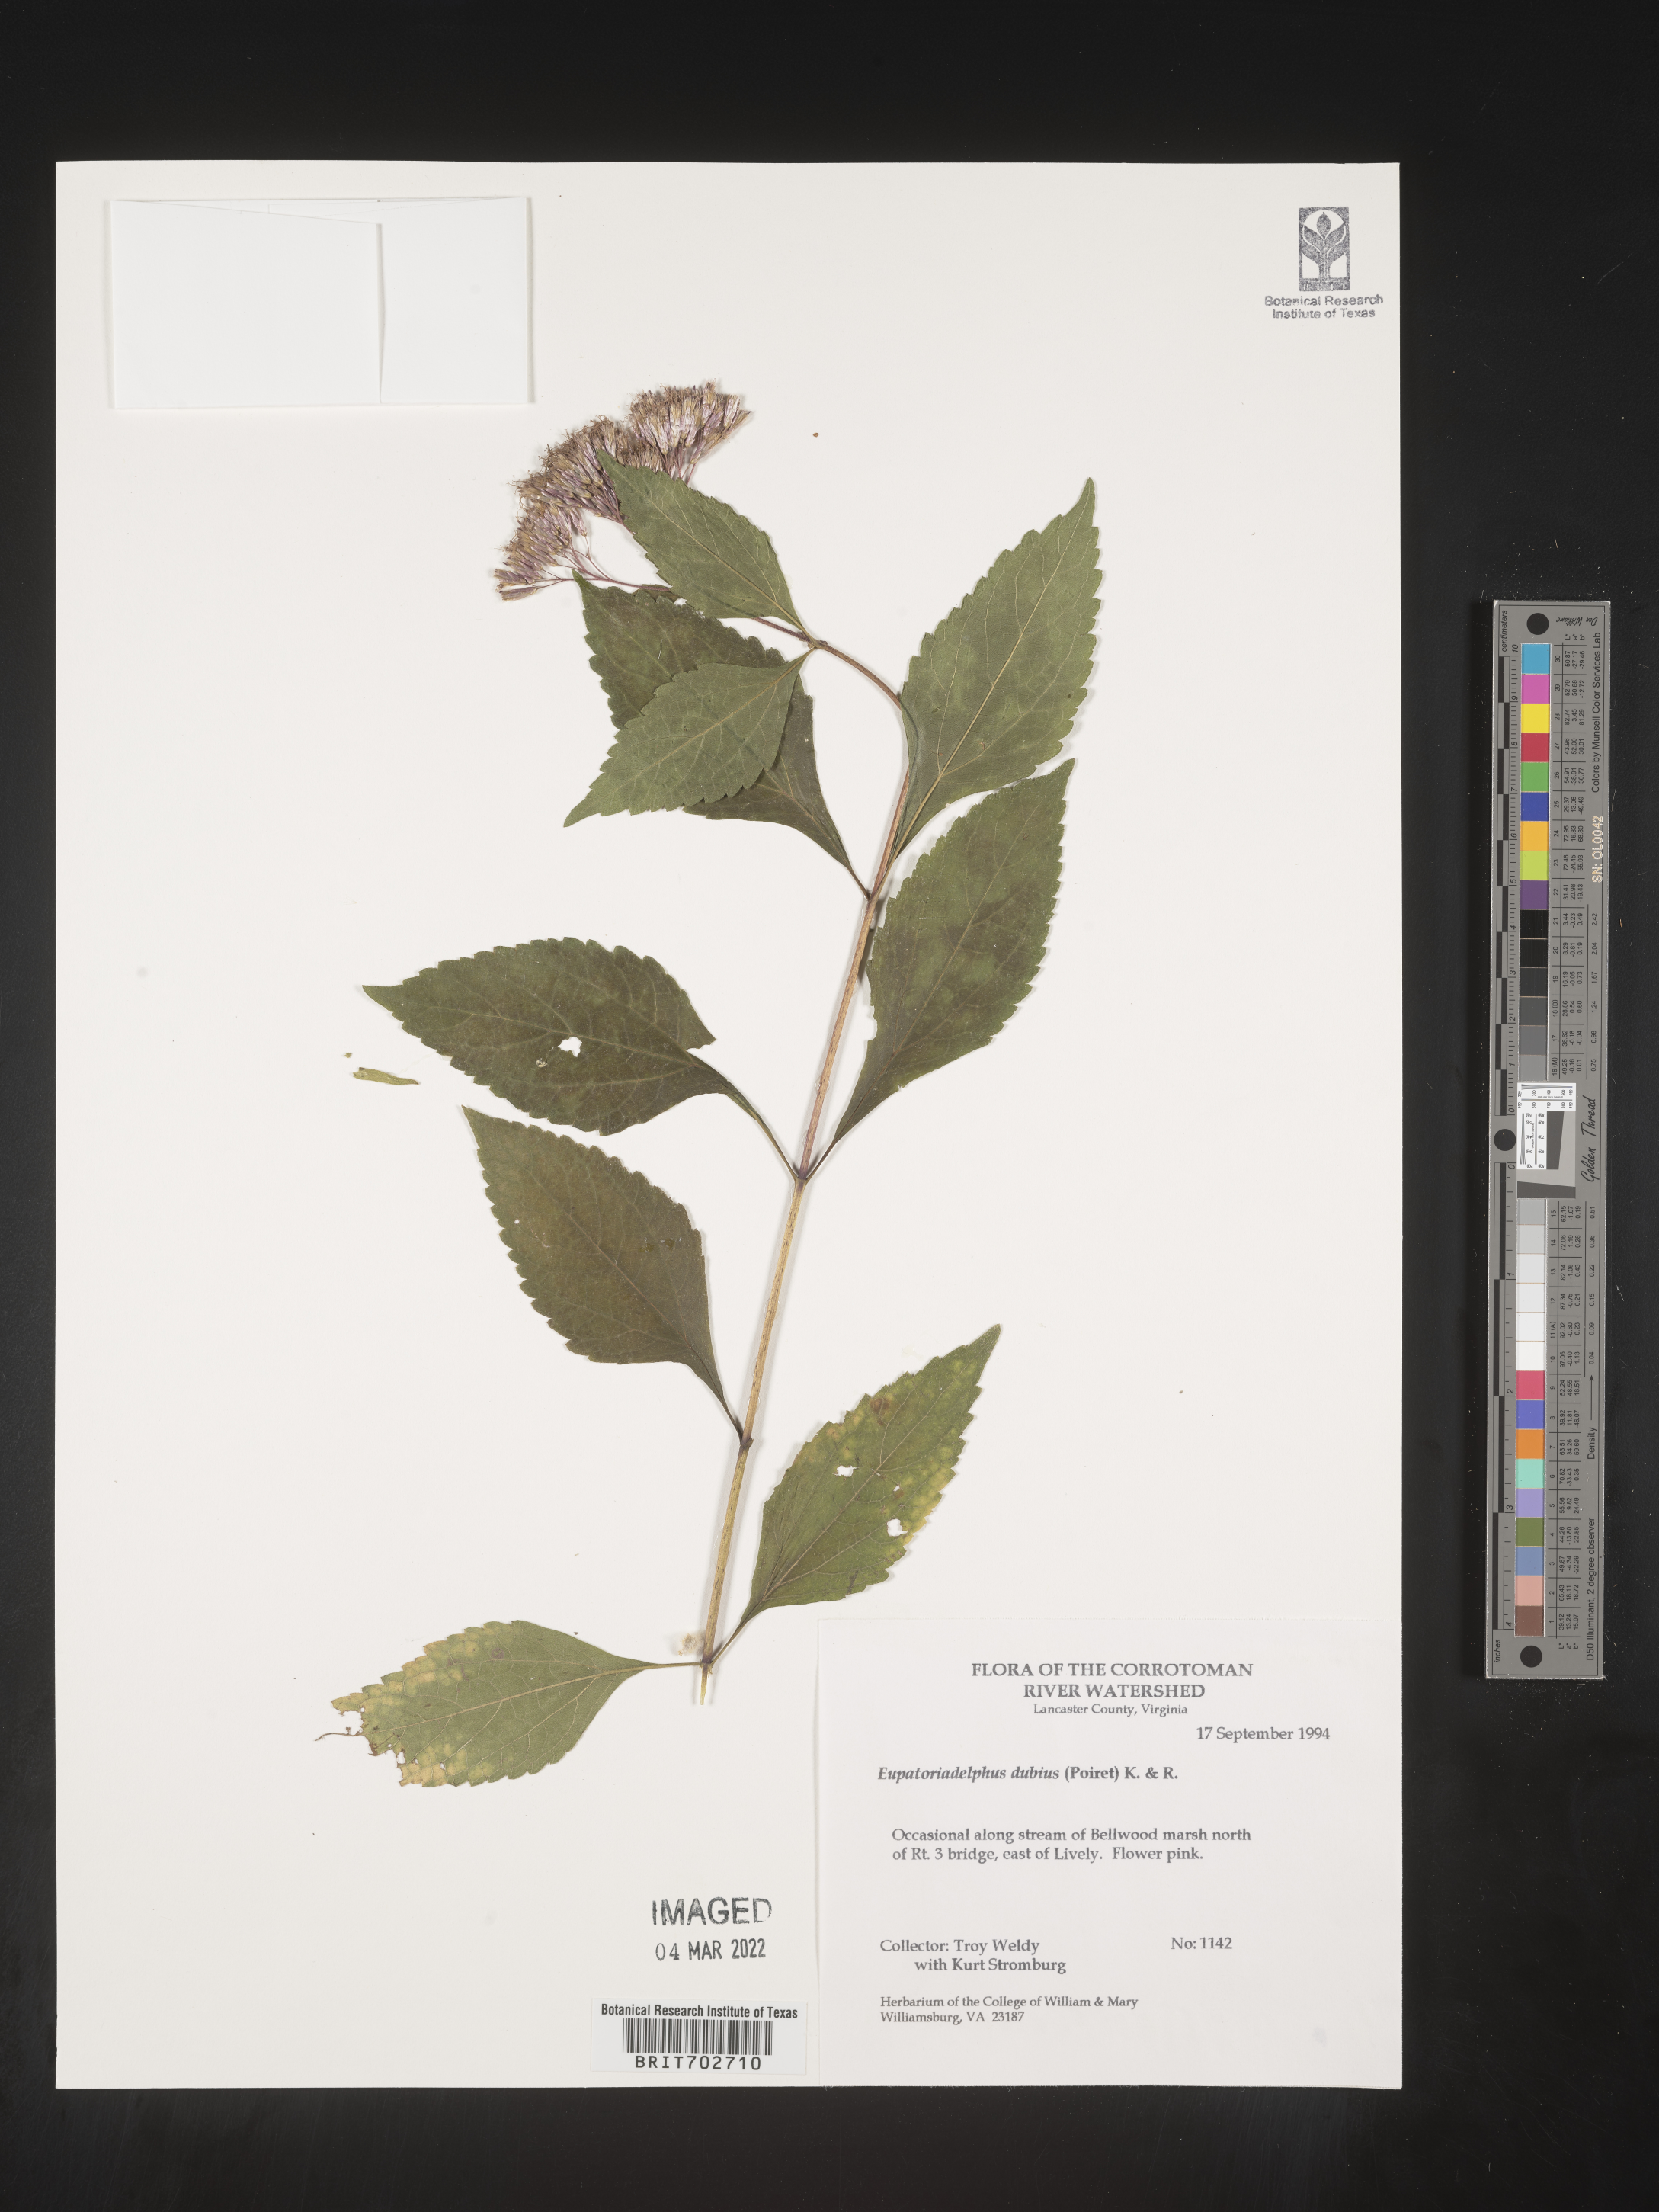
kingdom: Plantae
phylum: Tracheophyta
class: Magnoliopsida
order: Asterales
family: Asteraceae
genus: Eutrochium
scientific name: Eutrochium
